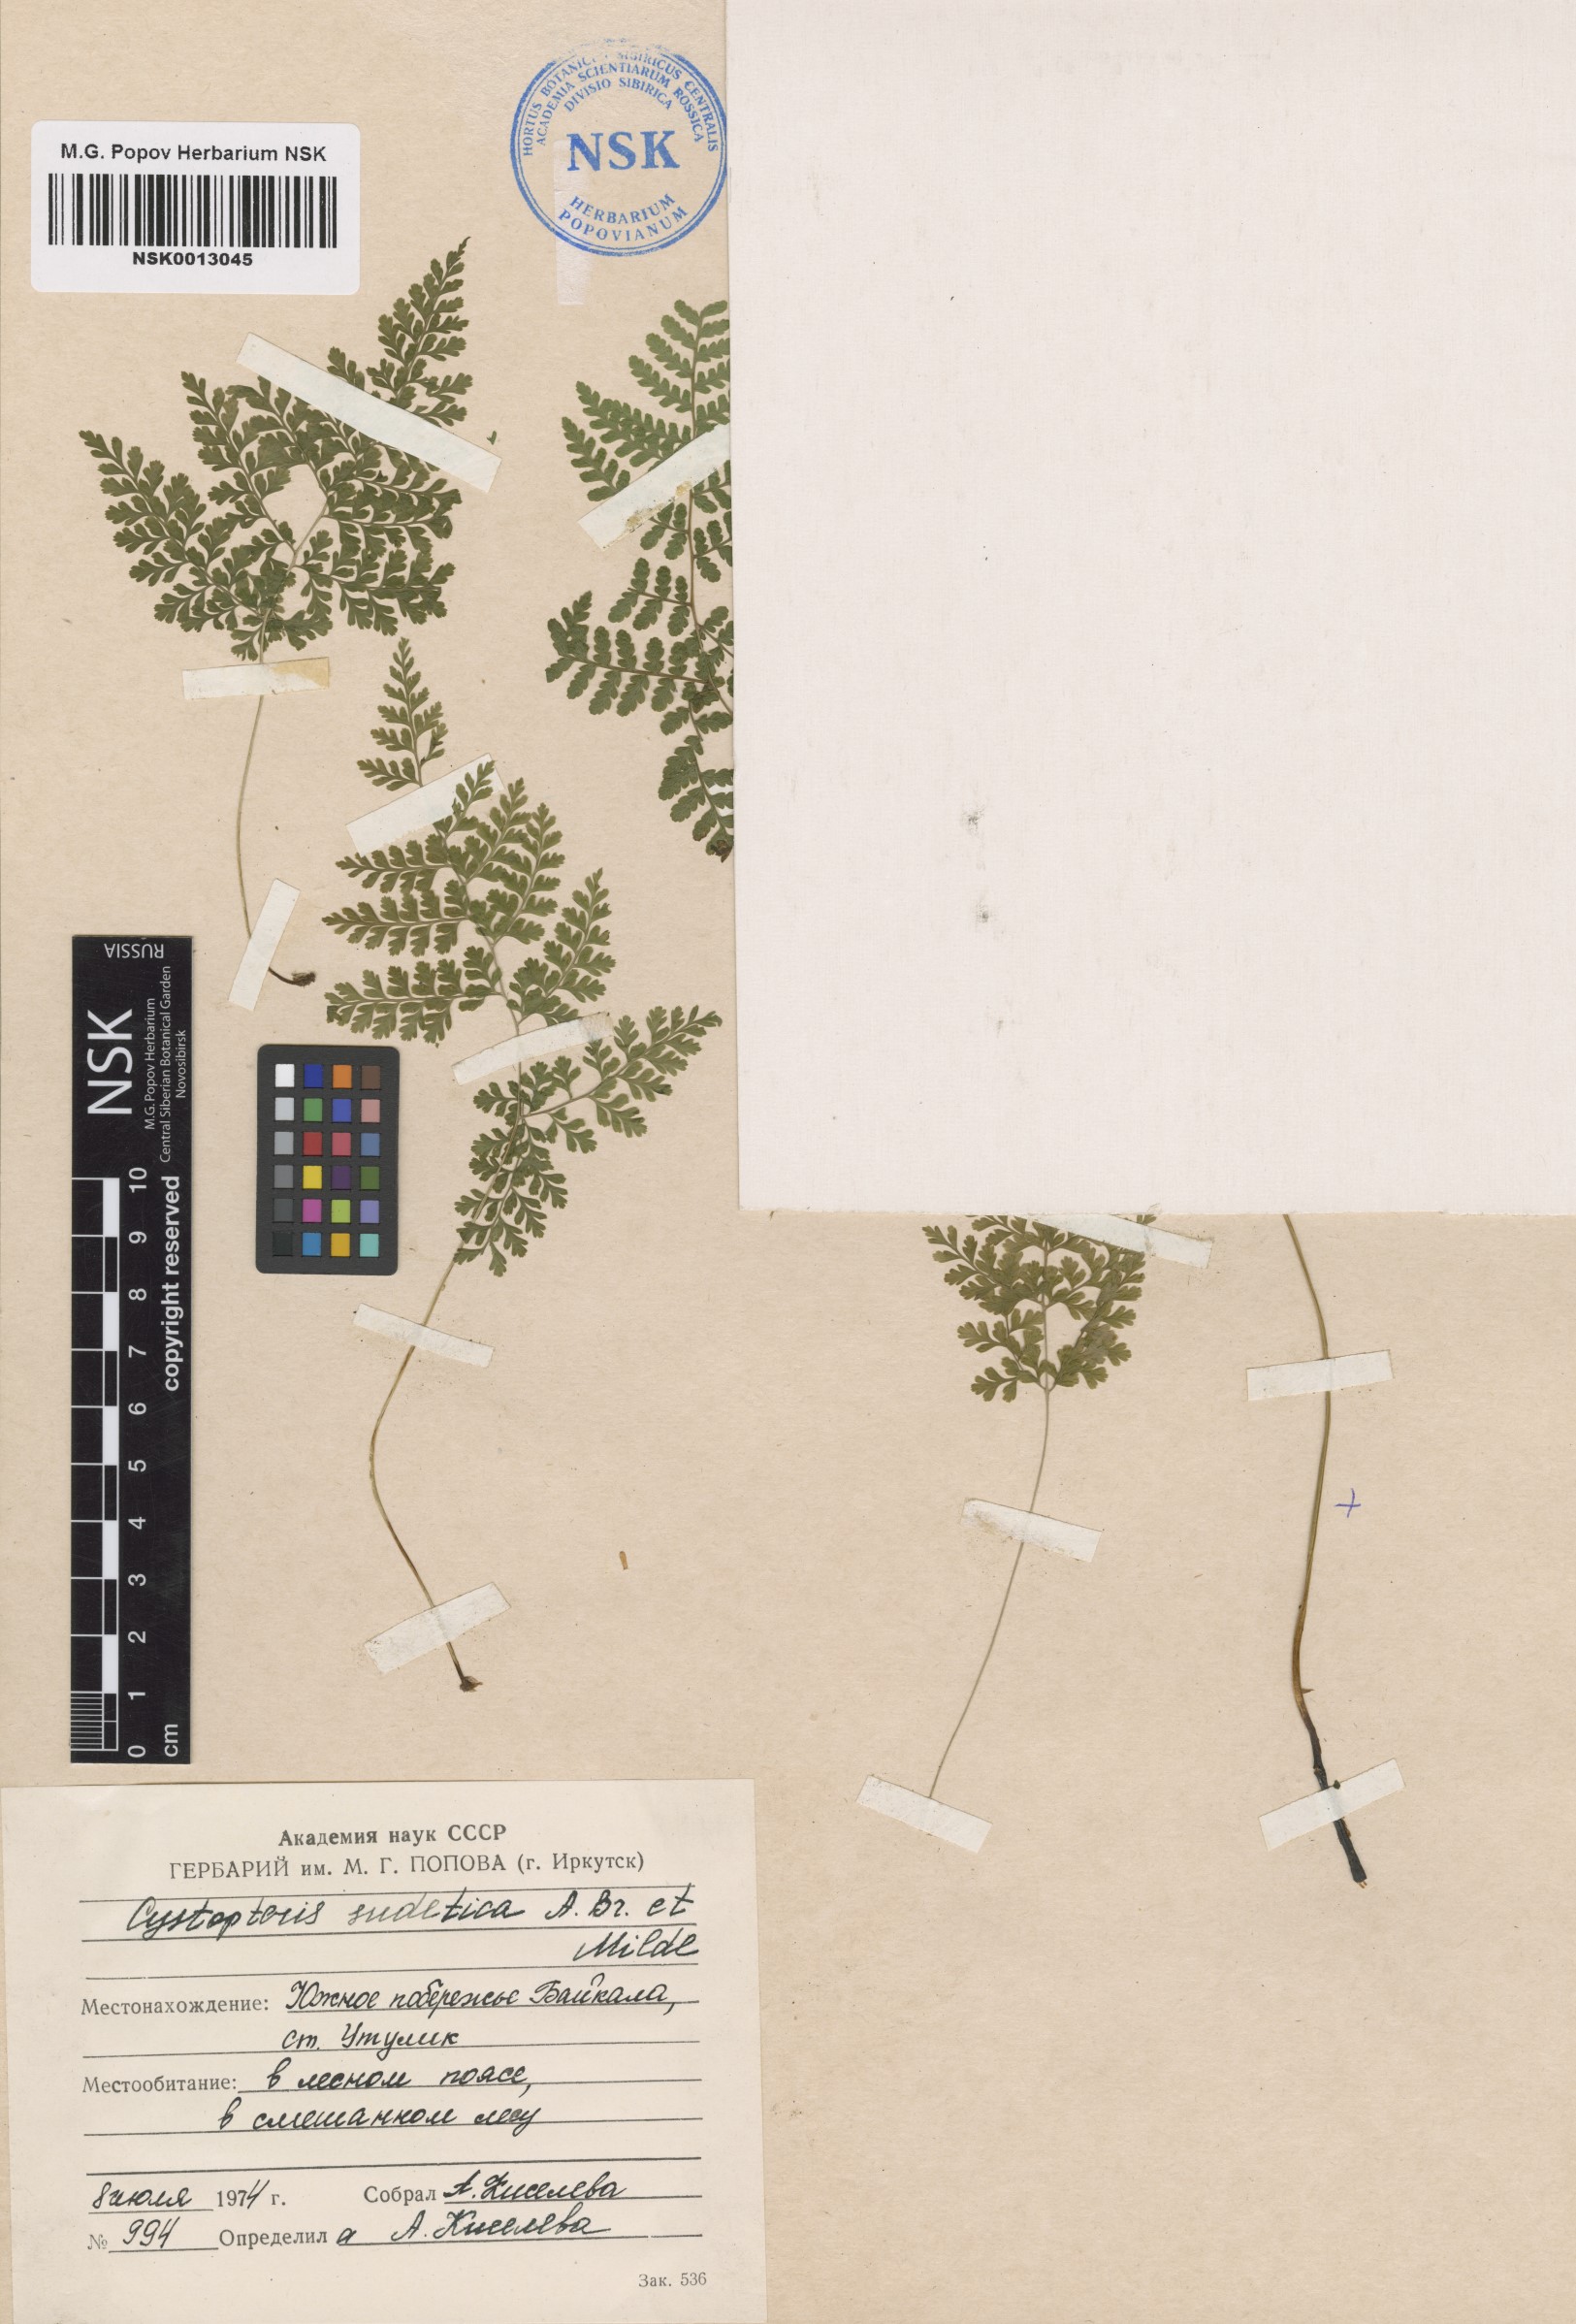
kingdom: Plantae
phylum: Tracheophyta
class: Polypodiopsida
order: Polypodiales
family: Cystopteridaceae
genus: Cystopteris
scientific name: Cystopteris sudetica
